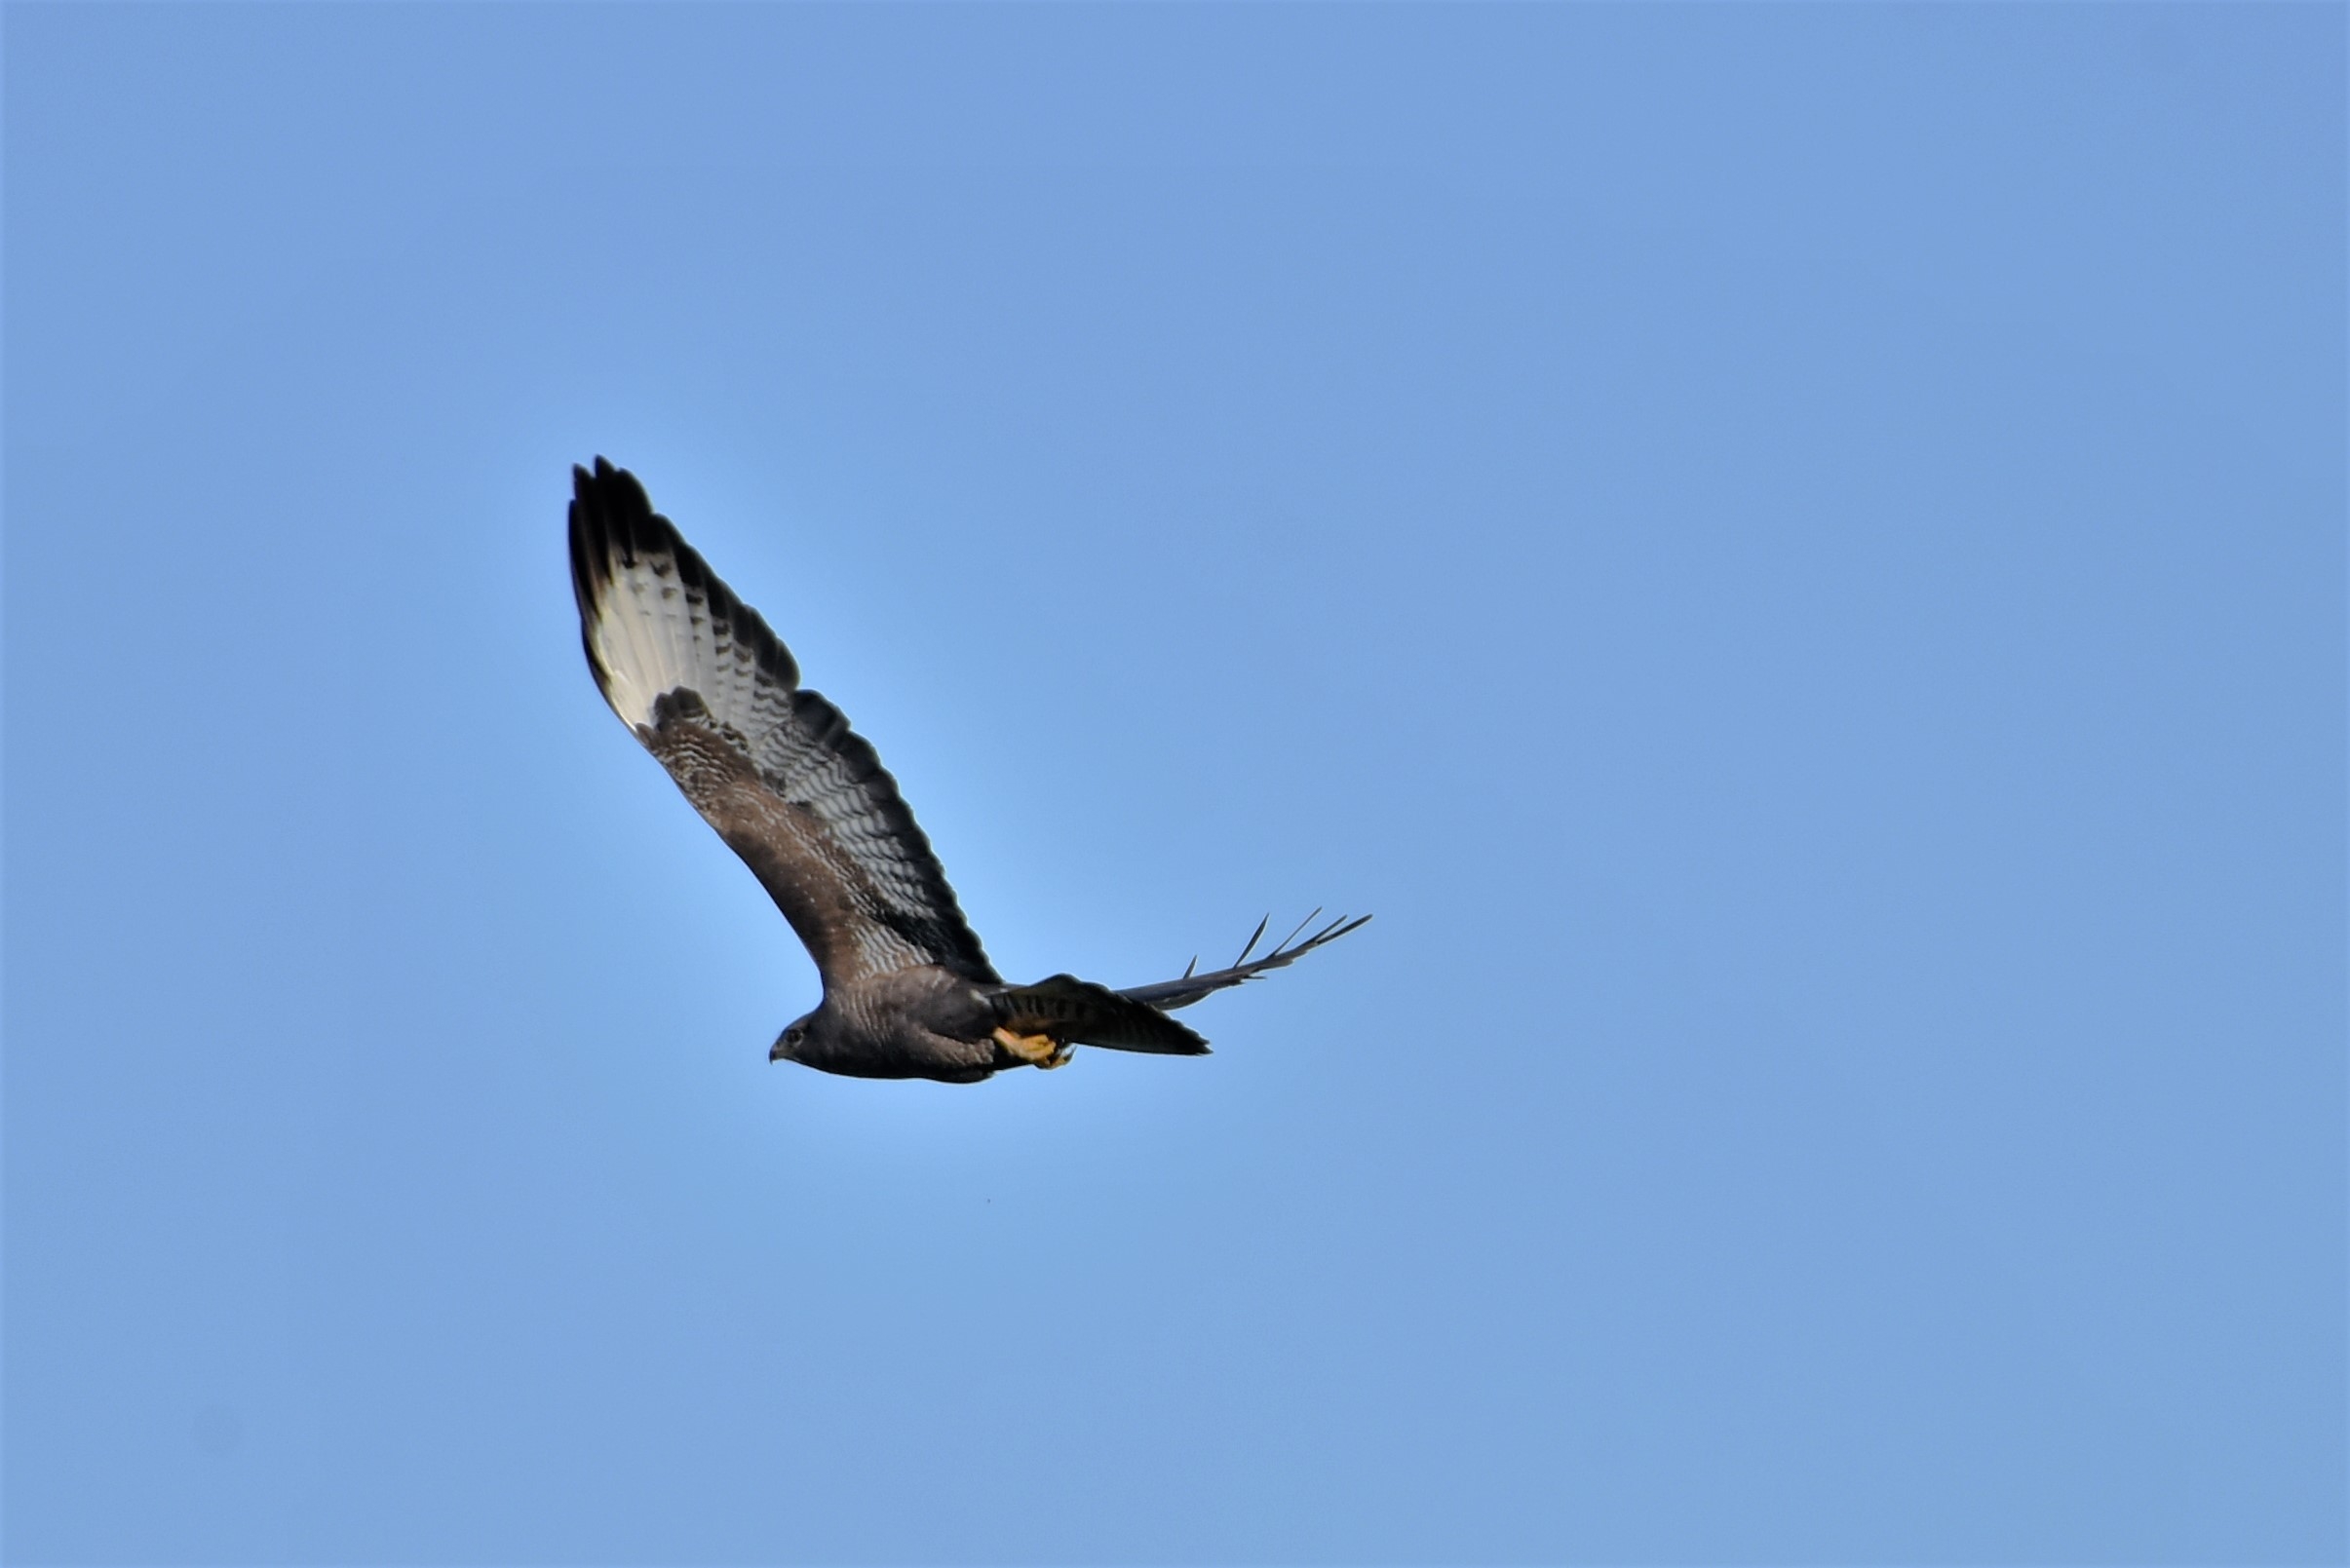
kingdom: Animalia
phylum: Chordata
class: Aves
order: Accipitriformes
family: Accipitridae
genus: Buteo
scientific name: Buteo buteo
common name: Musvåge
